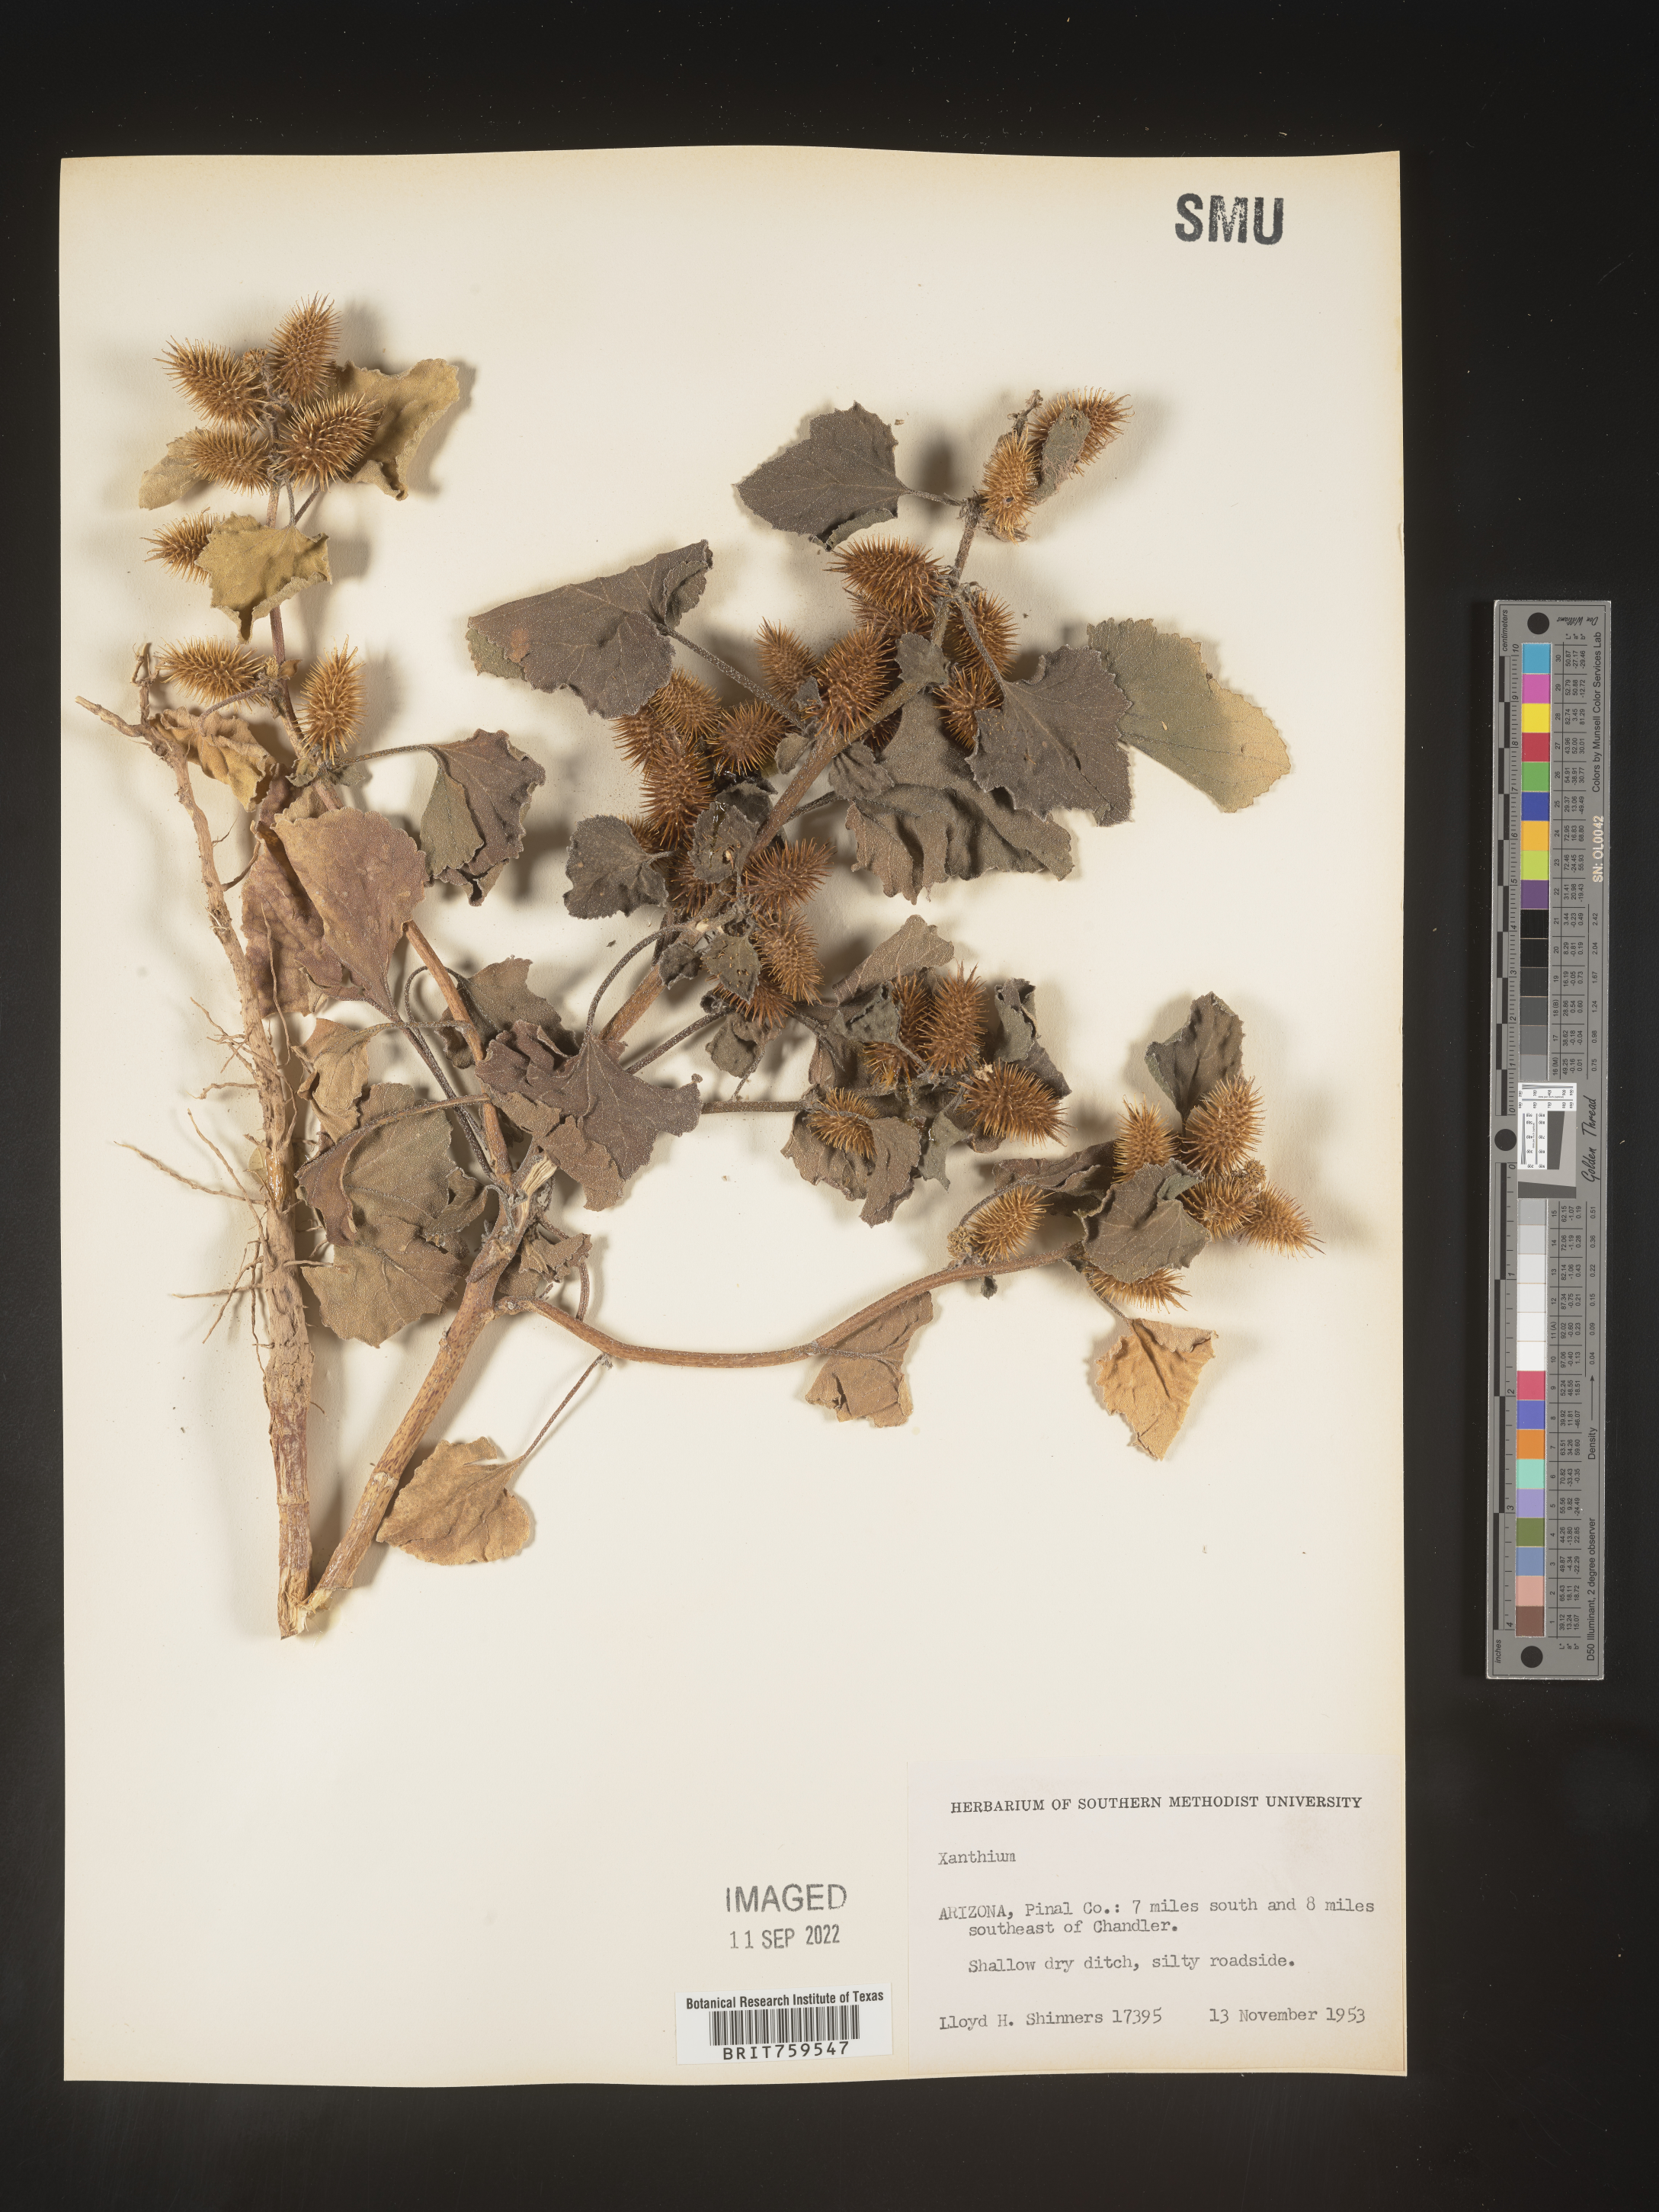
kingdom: Plantae
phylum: Tracheophyta
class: Magnoliopsida
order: Asterales
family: Asteraceae
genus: Xanthium
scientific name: Xanthium
